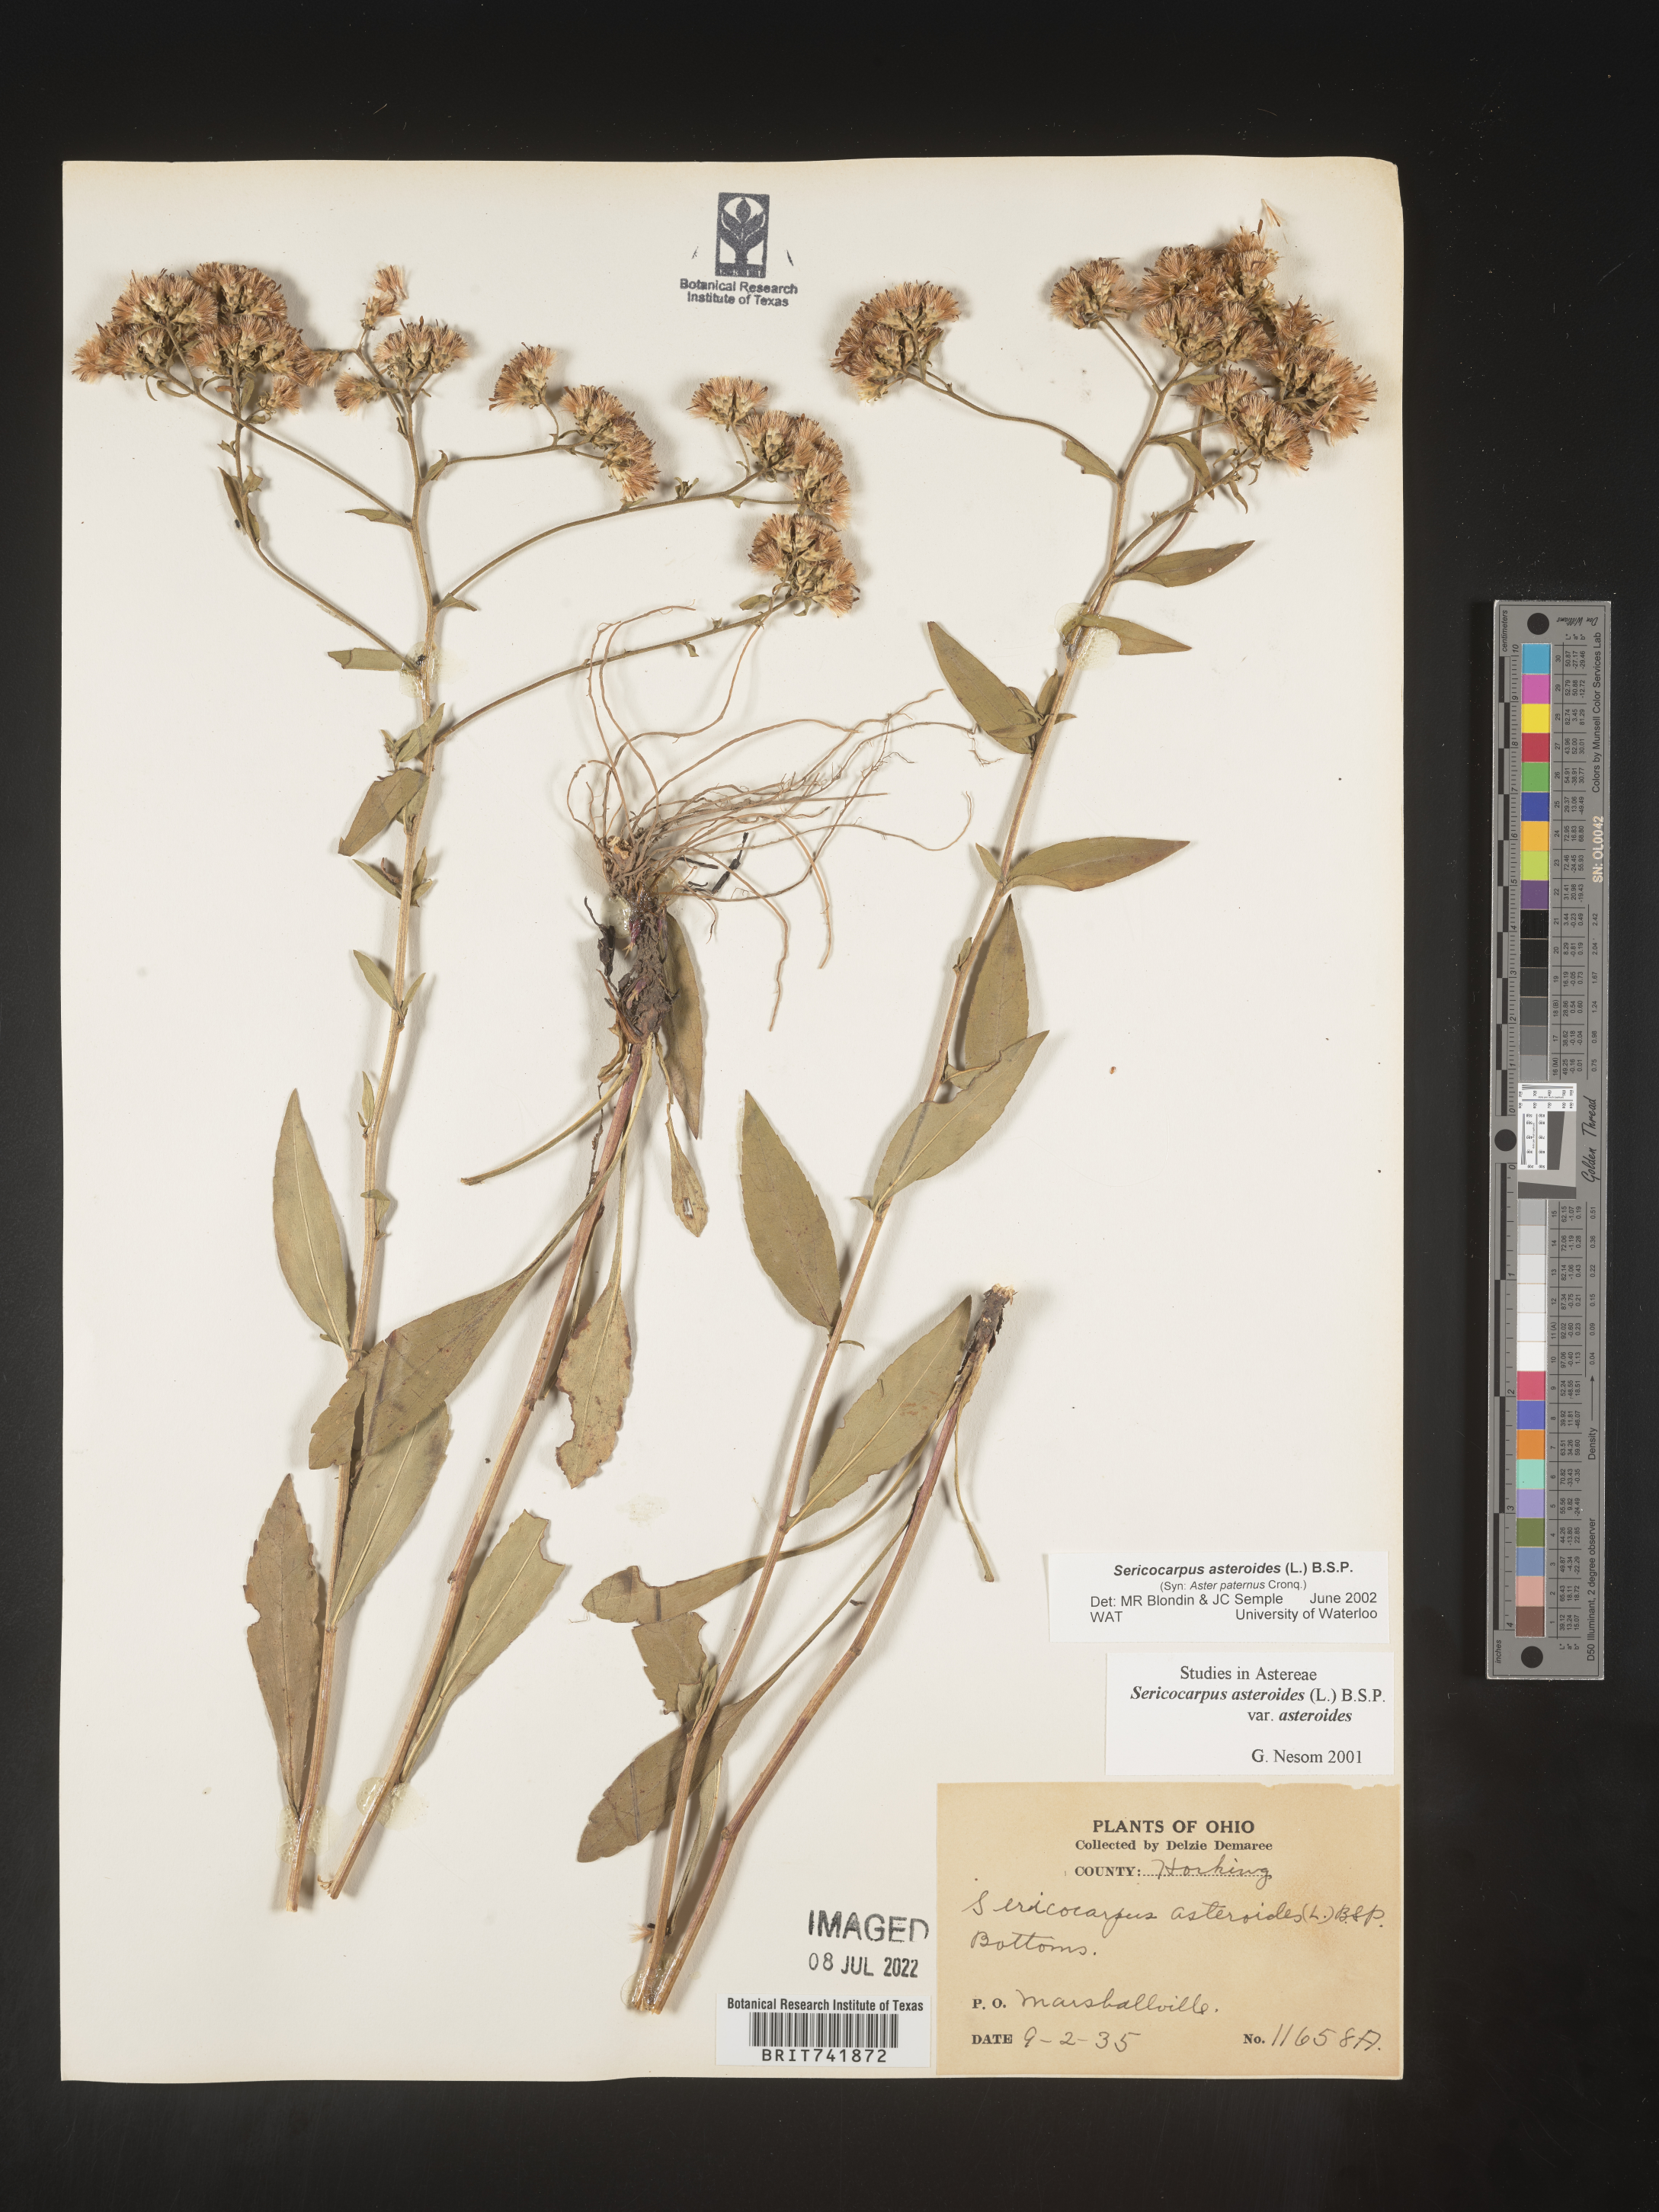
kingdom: Plantae
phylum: Tracheophyta
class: Magnoliopsida
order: Asterales
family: Asteraceae
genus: Sericocarpus
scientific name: Sericocarpus asteroides
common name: Toothed white-top aster
